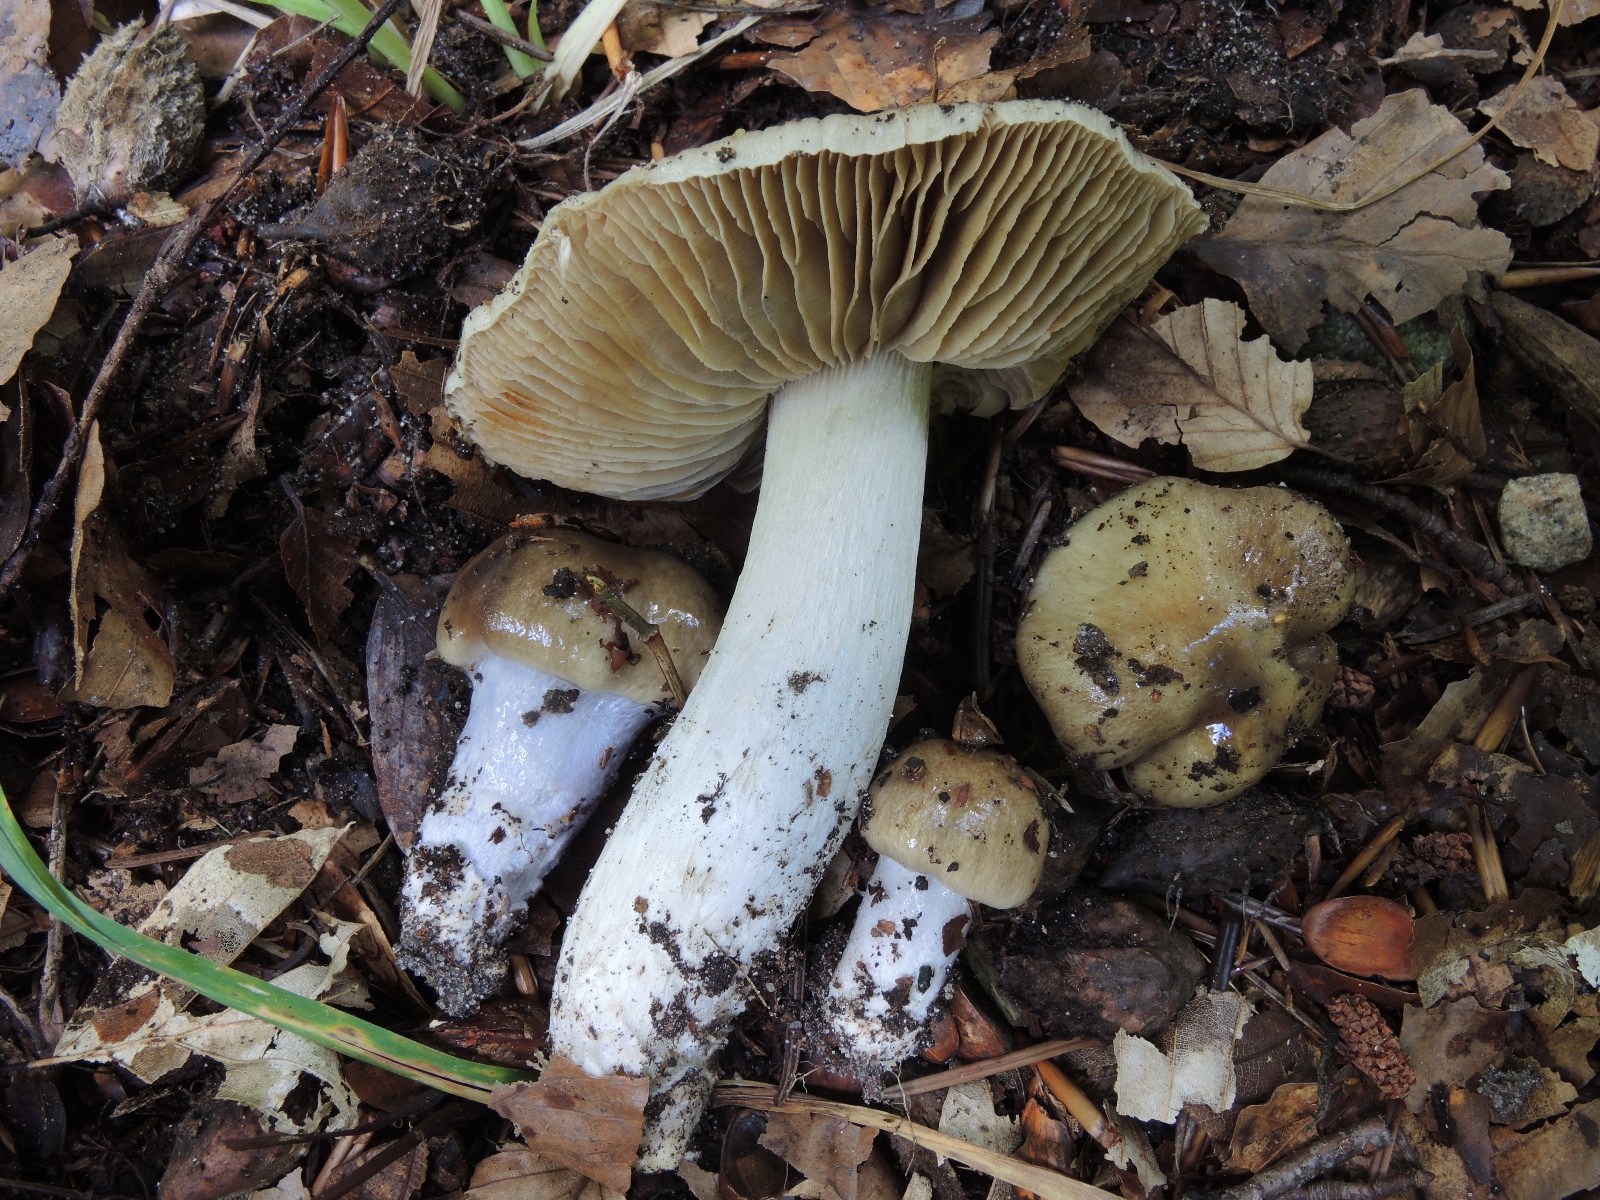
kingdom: Fungi
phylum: Basidiomycota
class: Agaricomycetes
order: Agaricales
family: Cortinariaceae
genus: Cortinarius
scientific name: Cortinarius elatior
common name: høj slørhat
